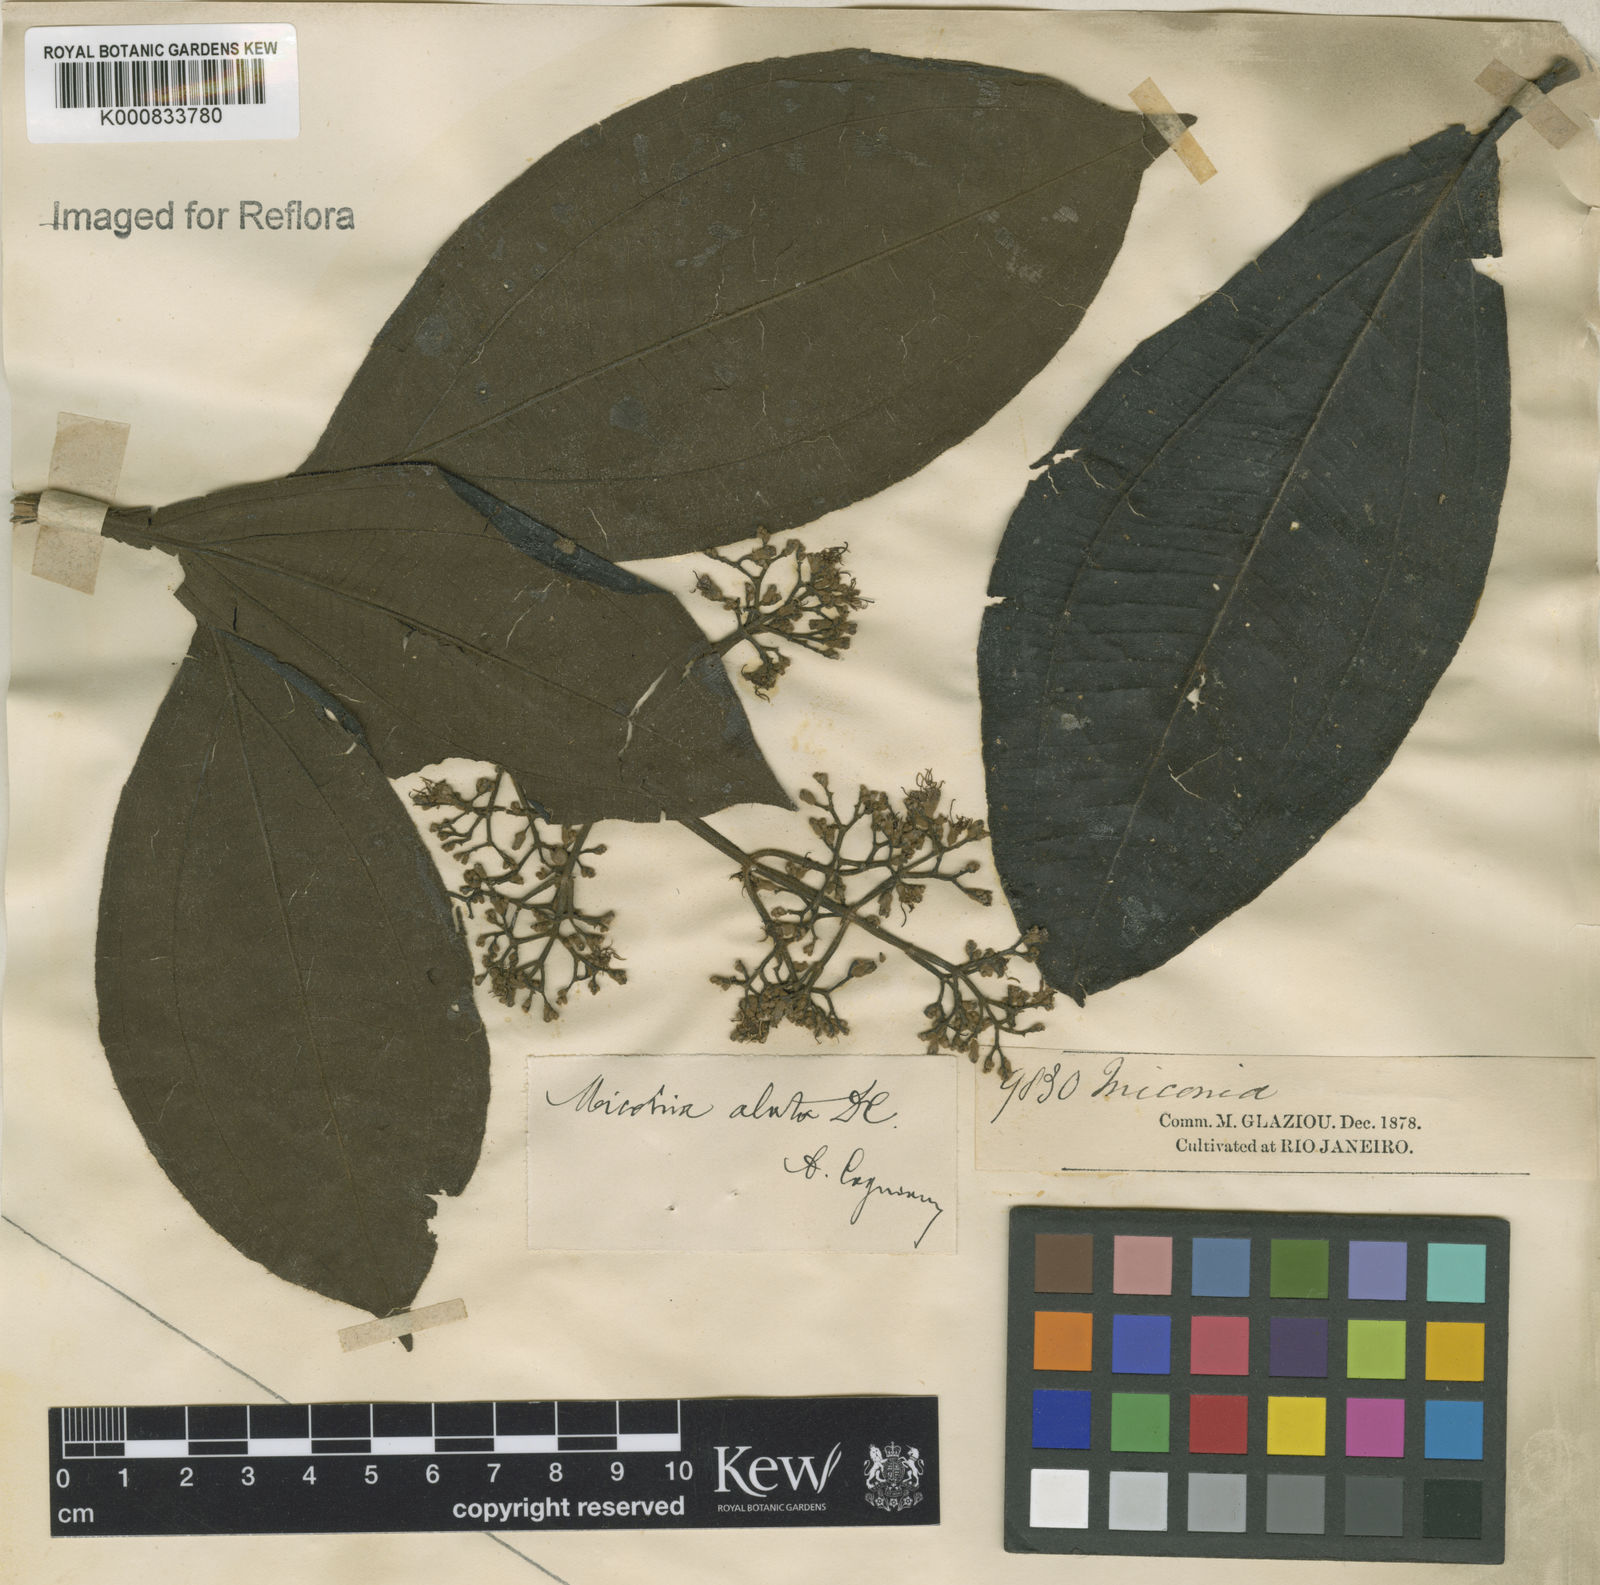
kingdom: Plantae
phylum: Tracheophyta
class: Magnoliopsida
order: Myrtales
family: Melastomataceae
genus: Miconia
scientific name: Miconia alata
